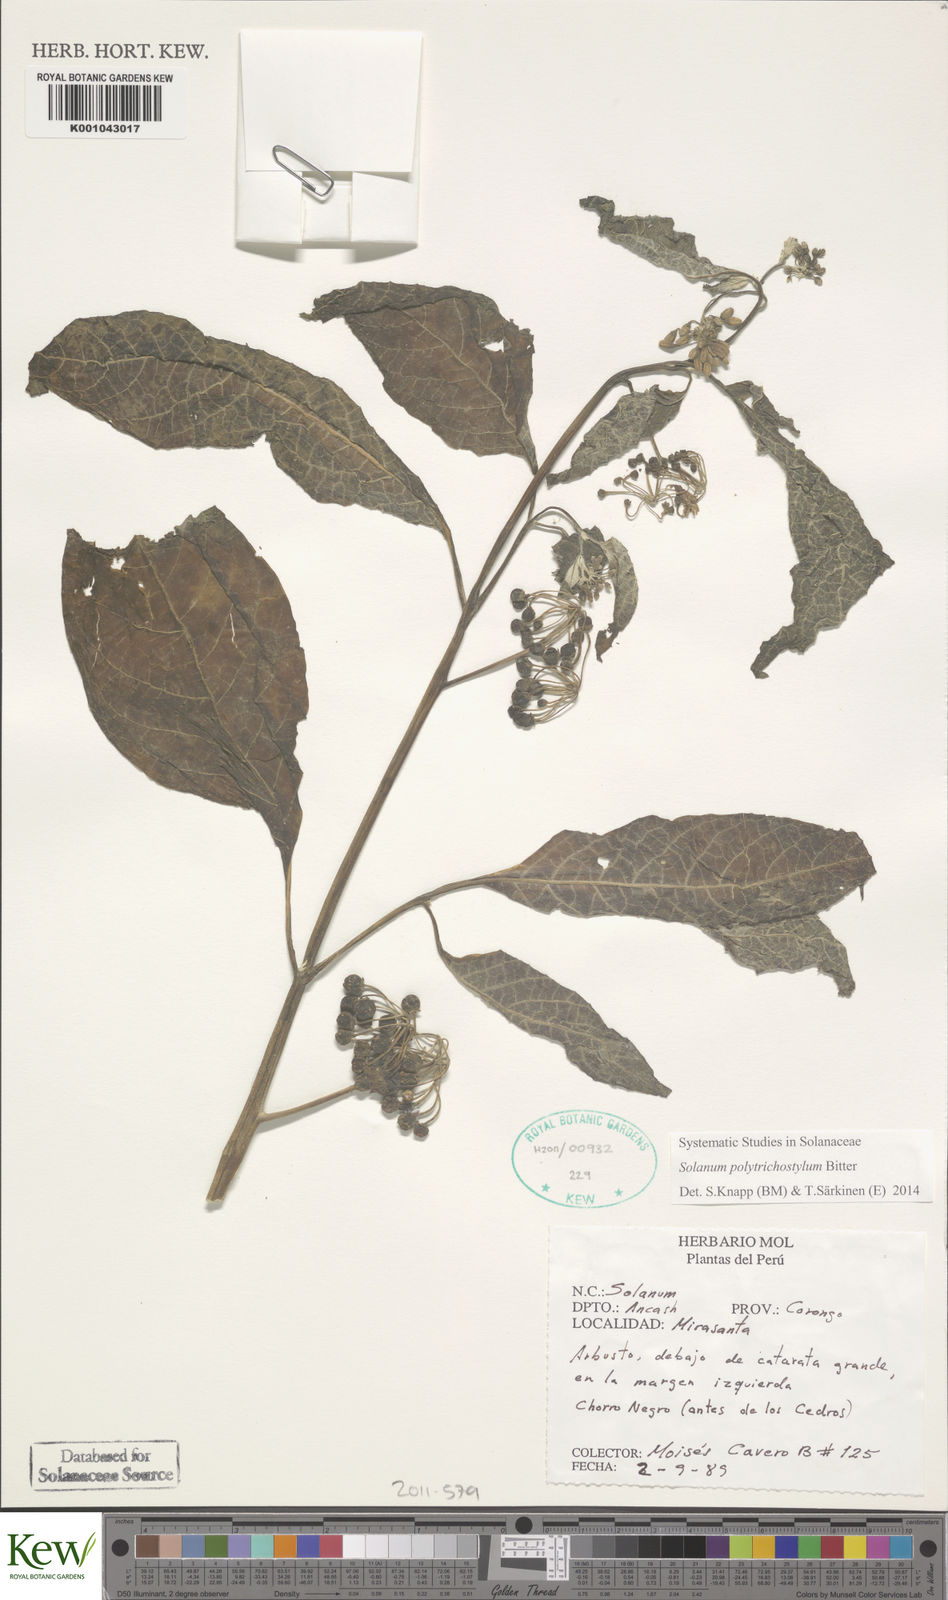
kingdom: Plantae
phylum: Tracheophyta
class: Magnoliopsida
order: Solanales
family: Solanaceae
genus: Solanum
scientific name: Solanum polytrichostylum
